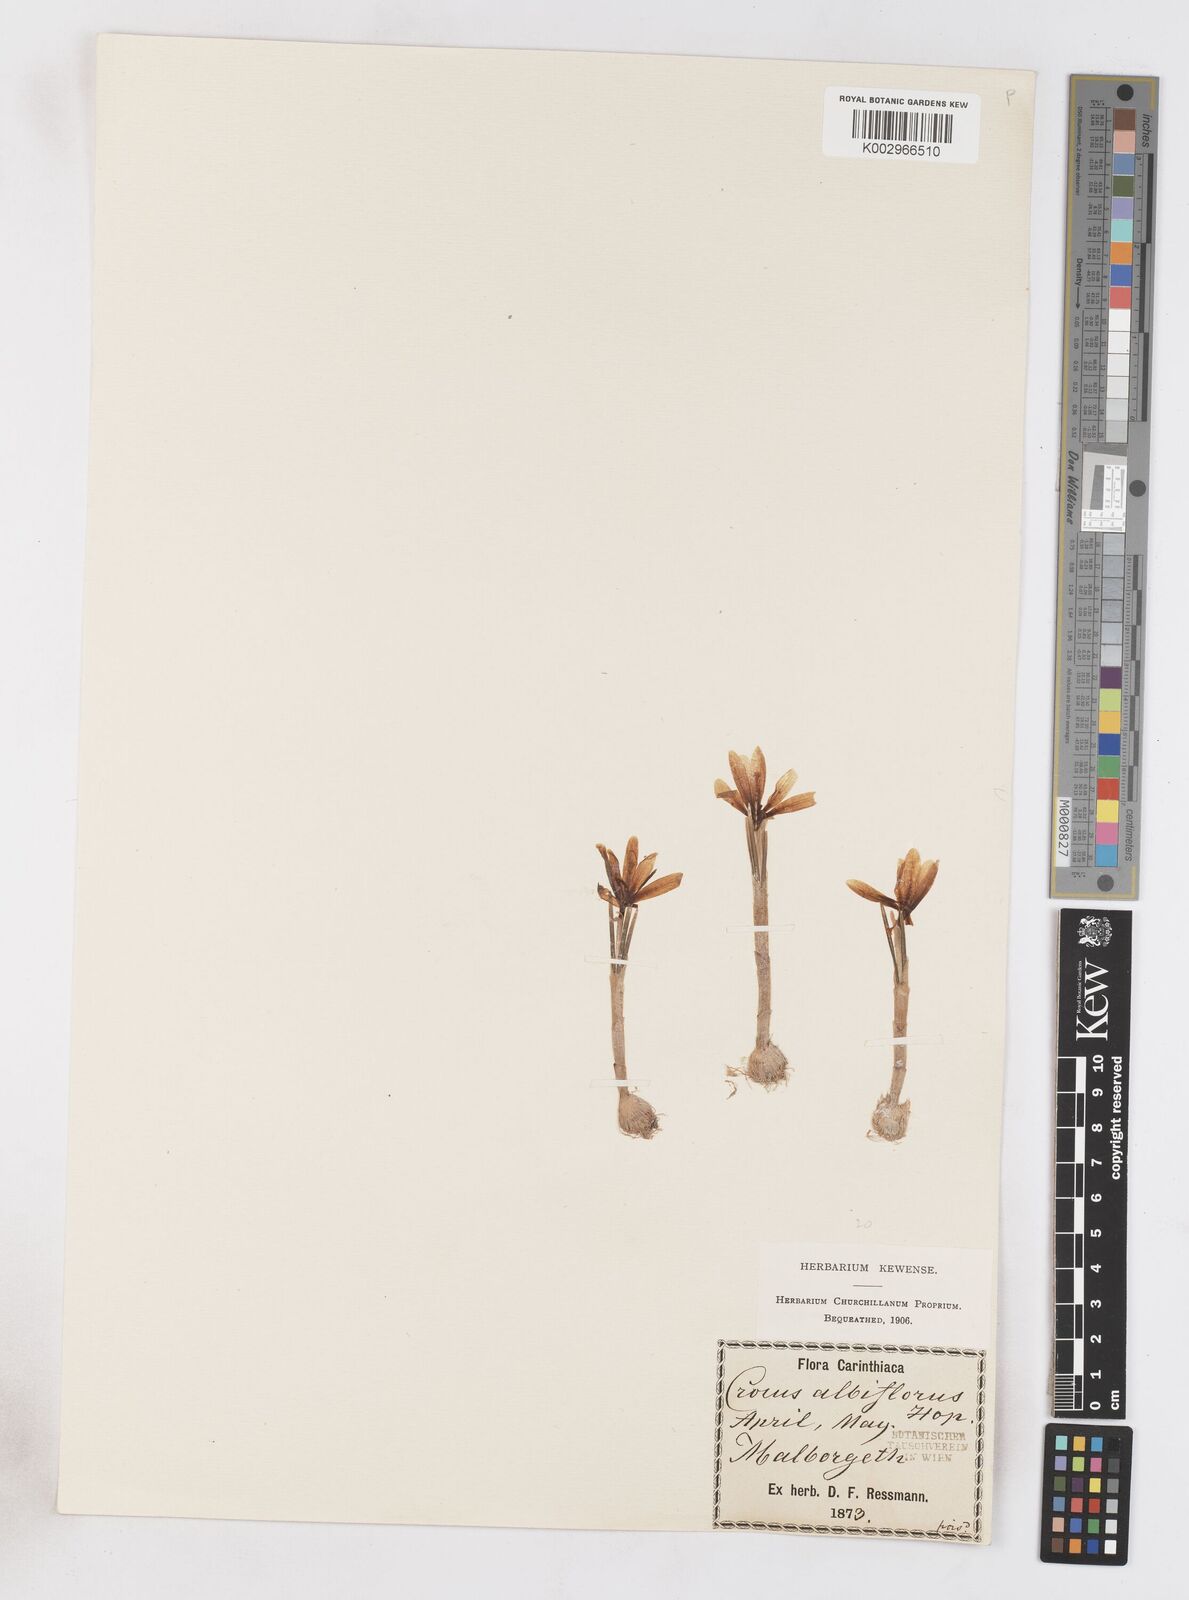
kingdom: Plantae
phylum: Tracheophyta
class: Liliopsida
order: Asparagales
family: Iridaceae
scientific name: Iridaceae
